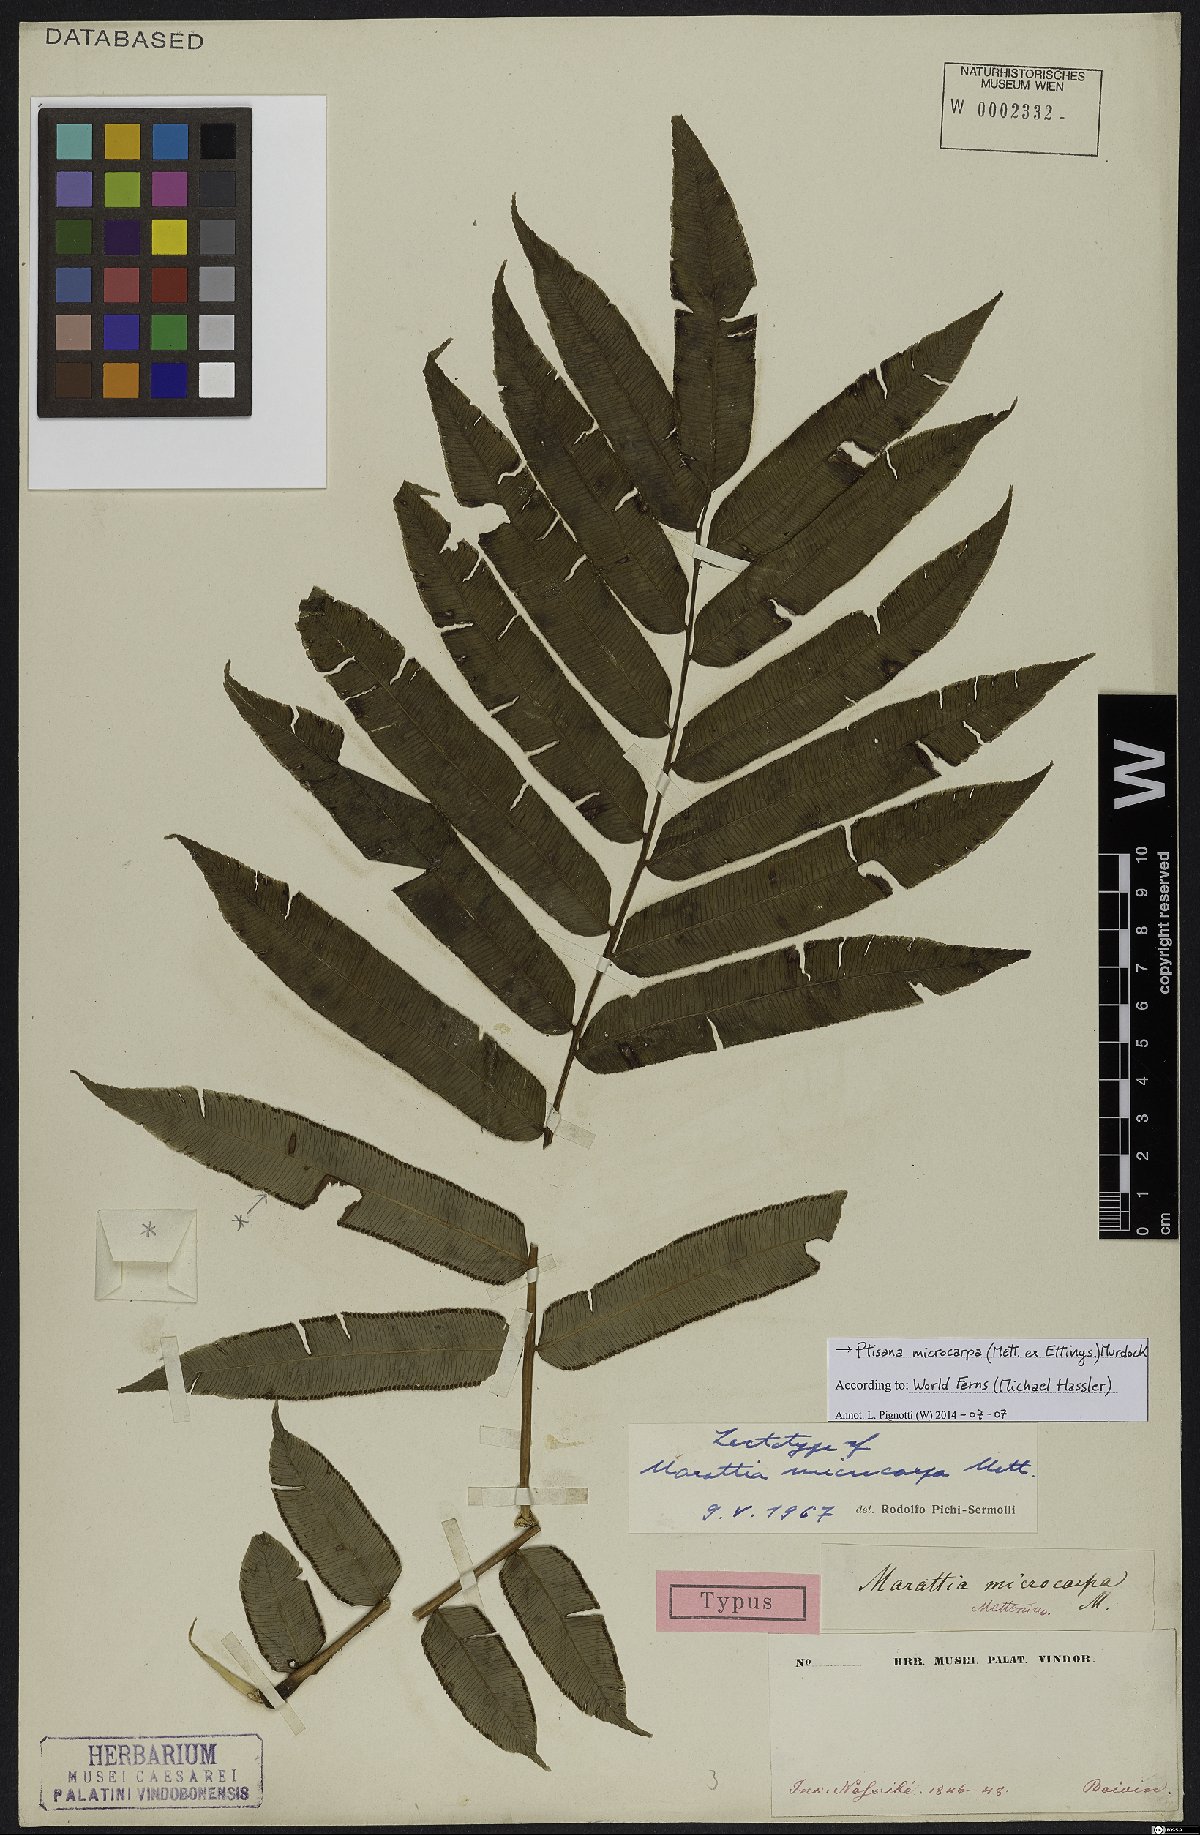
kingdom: Plantae
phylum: Tracheophyta
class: Polypodiopsida
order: Marattiales
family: Marattiaceae
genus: Ptisana
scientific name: Ptisana fraxinea
